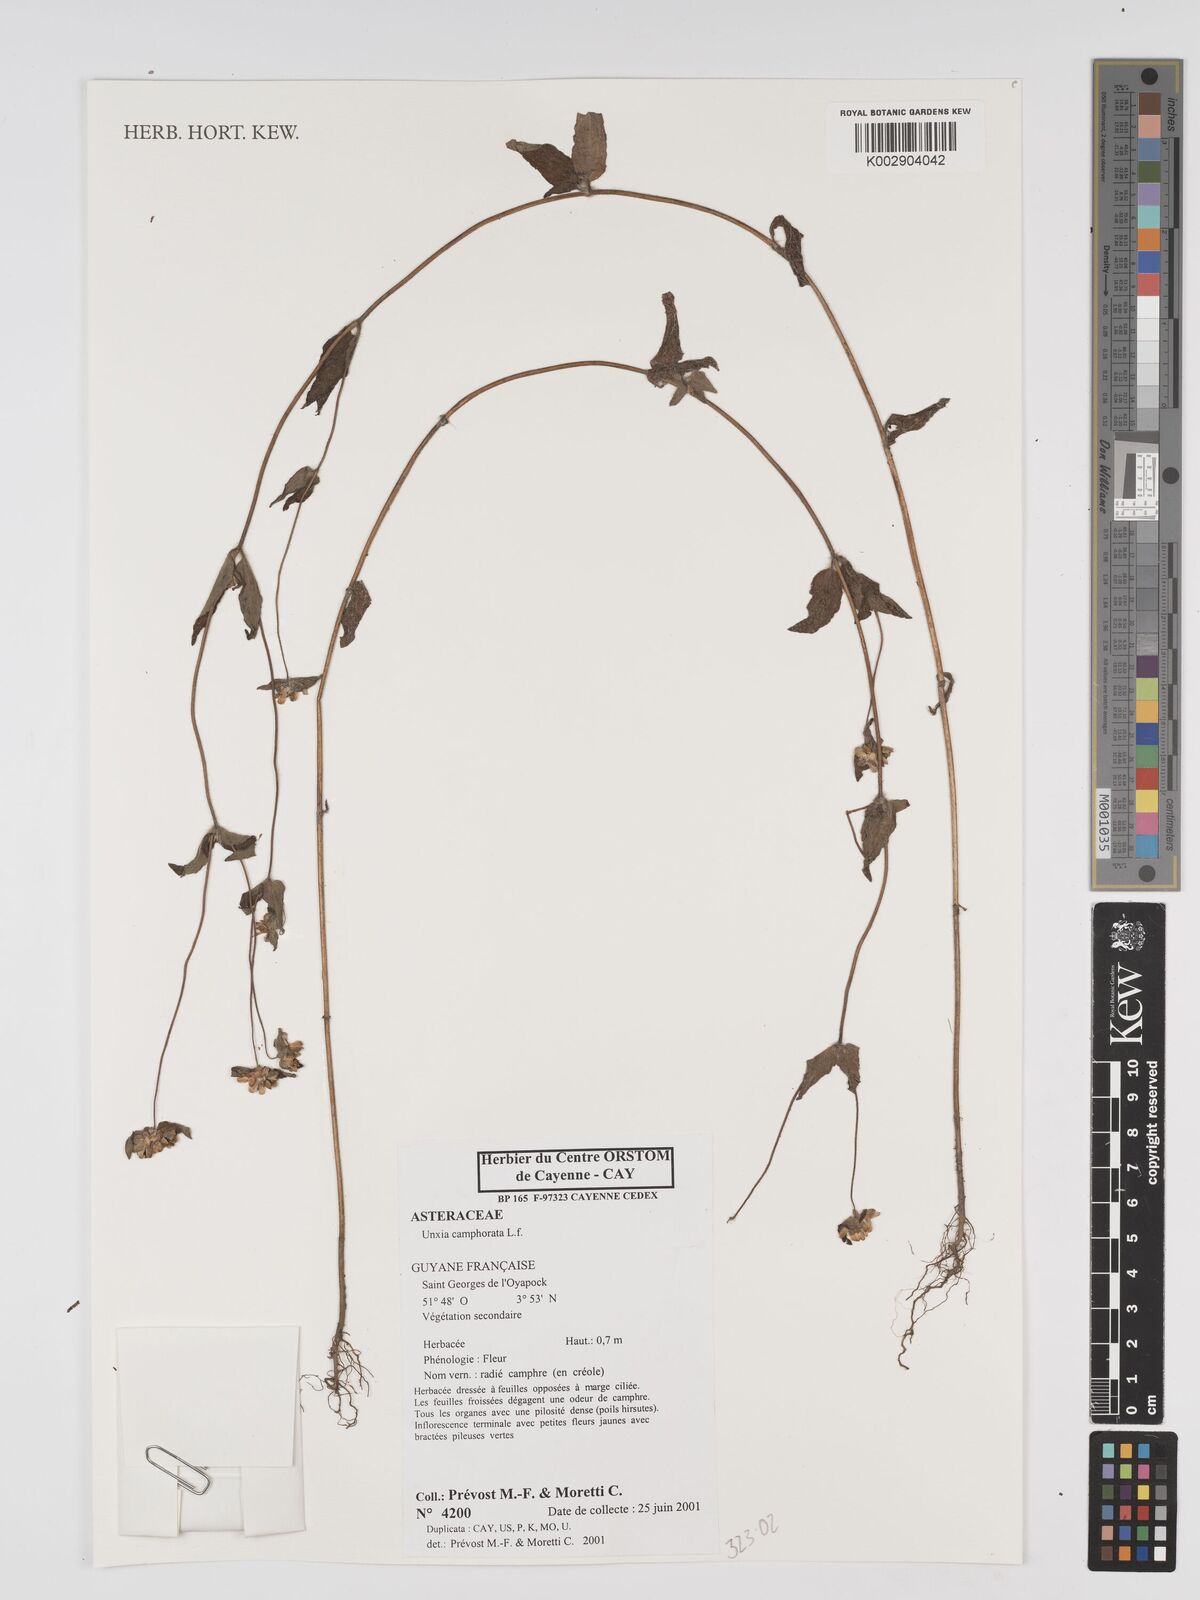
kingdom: Plantae
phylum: Tracheophyta
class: Magnoliopsida
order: Asterales
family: Asteraceae
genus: Unxia
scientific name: Unxia camphorata
